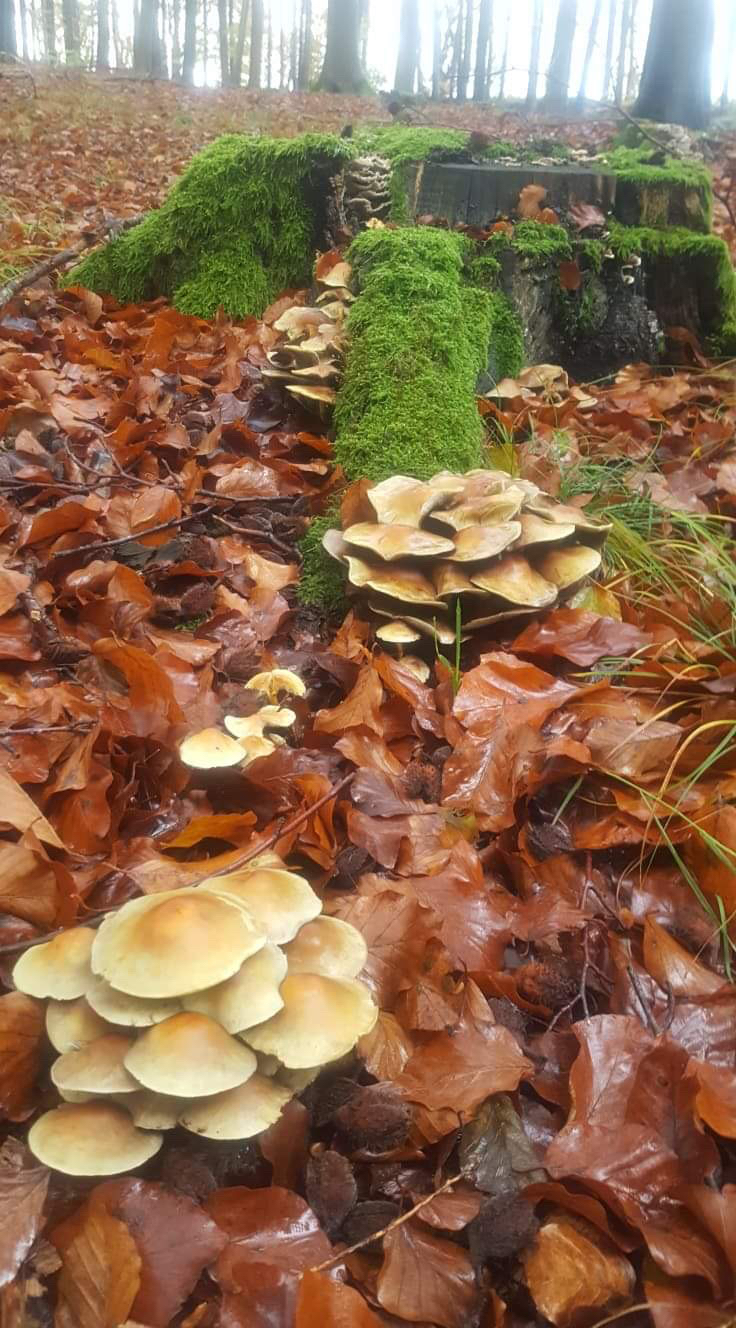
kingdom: Fungi
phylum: Basidiomycota
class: Agaricomycetes
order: Agaricales
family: Strophariaceae
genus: Hypholoma
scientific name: Hypholoma fasciculare
